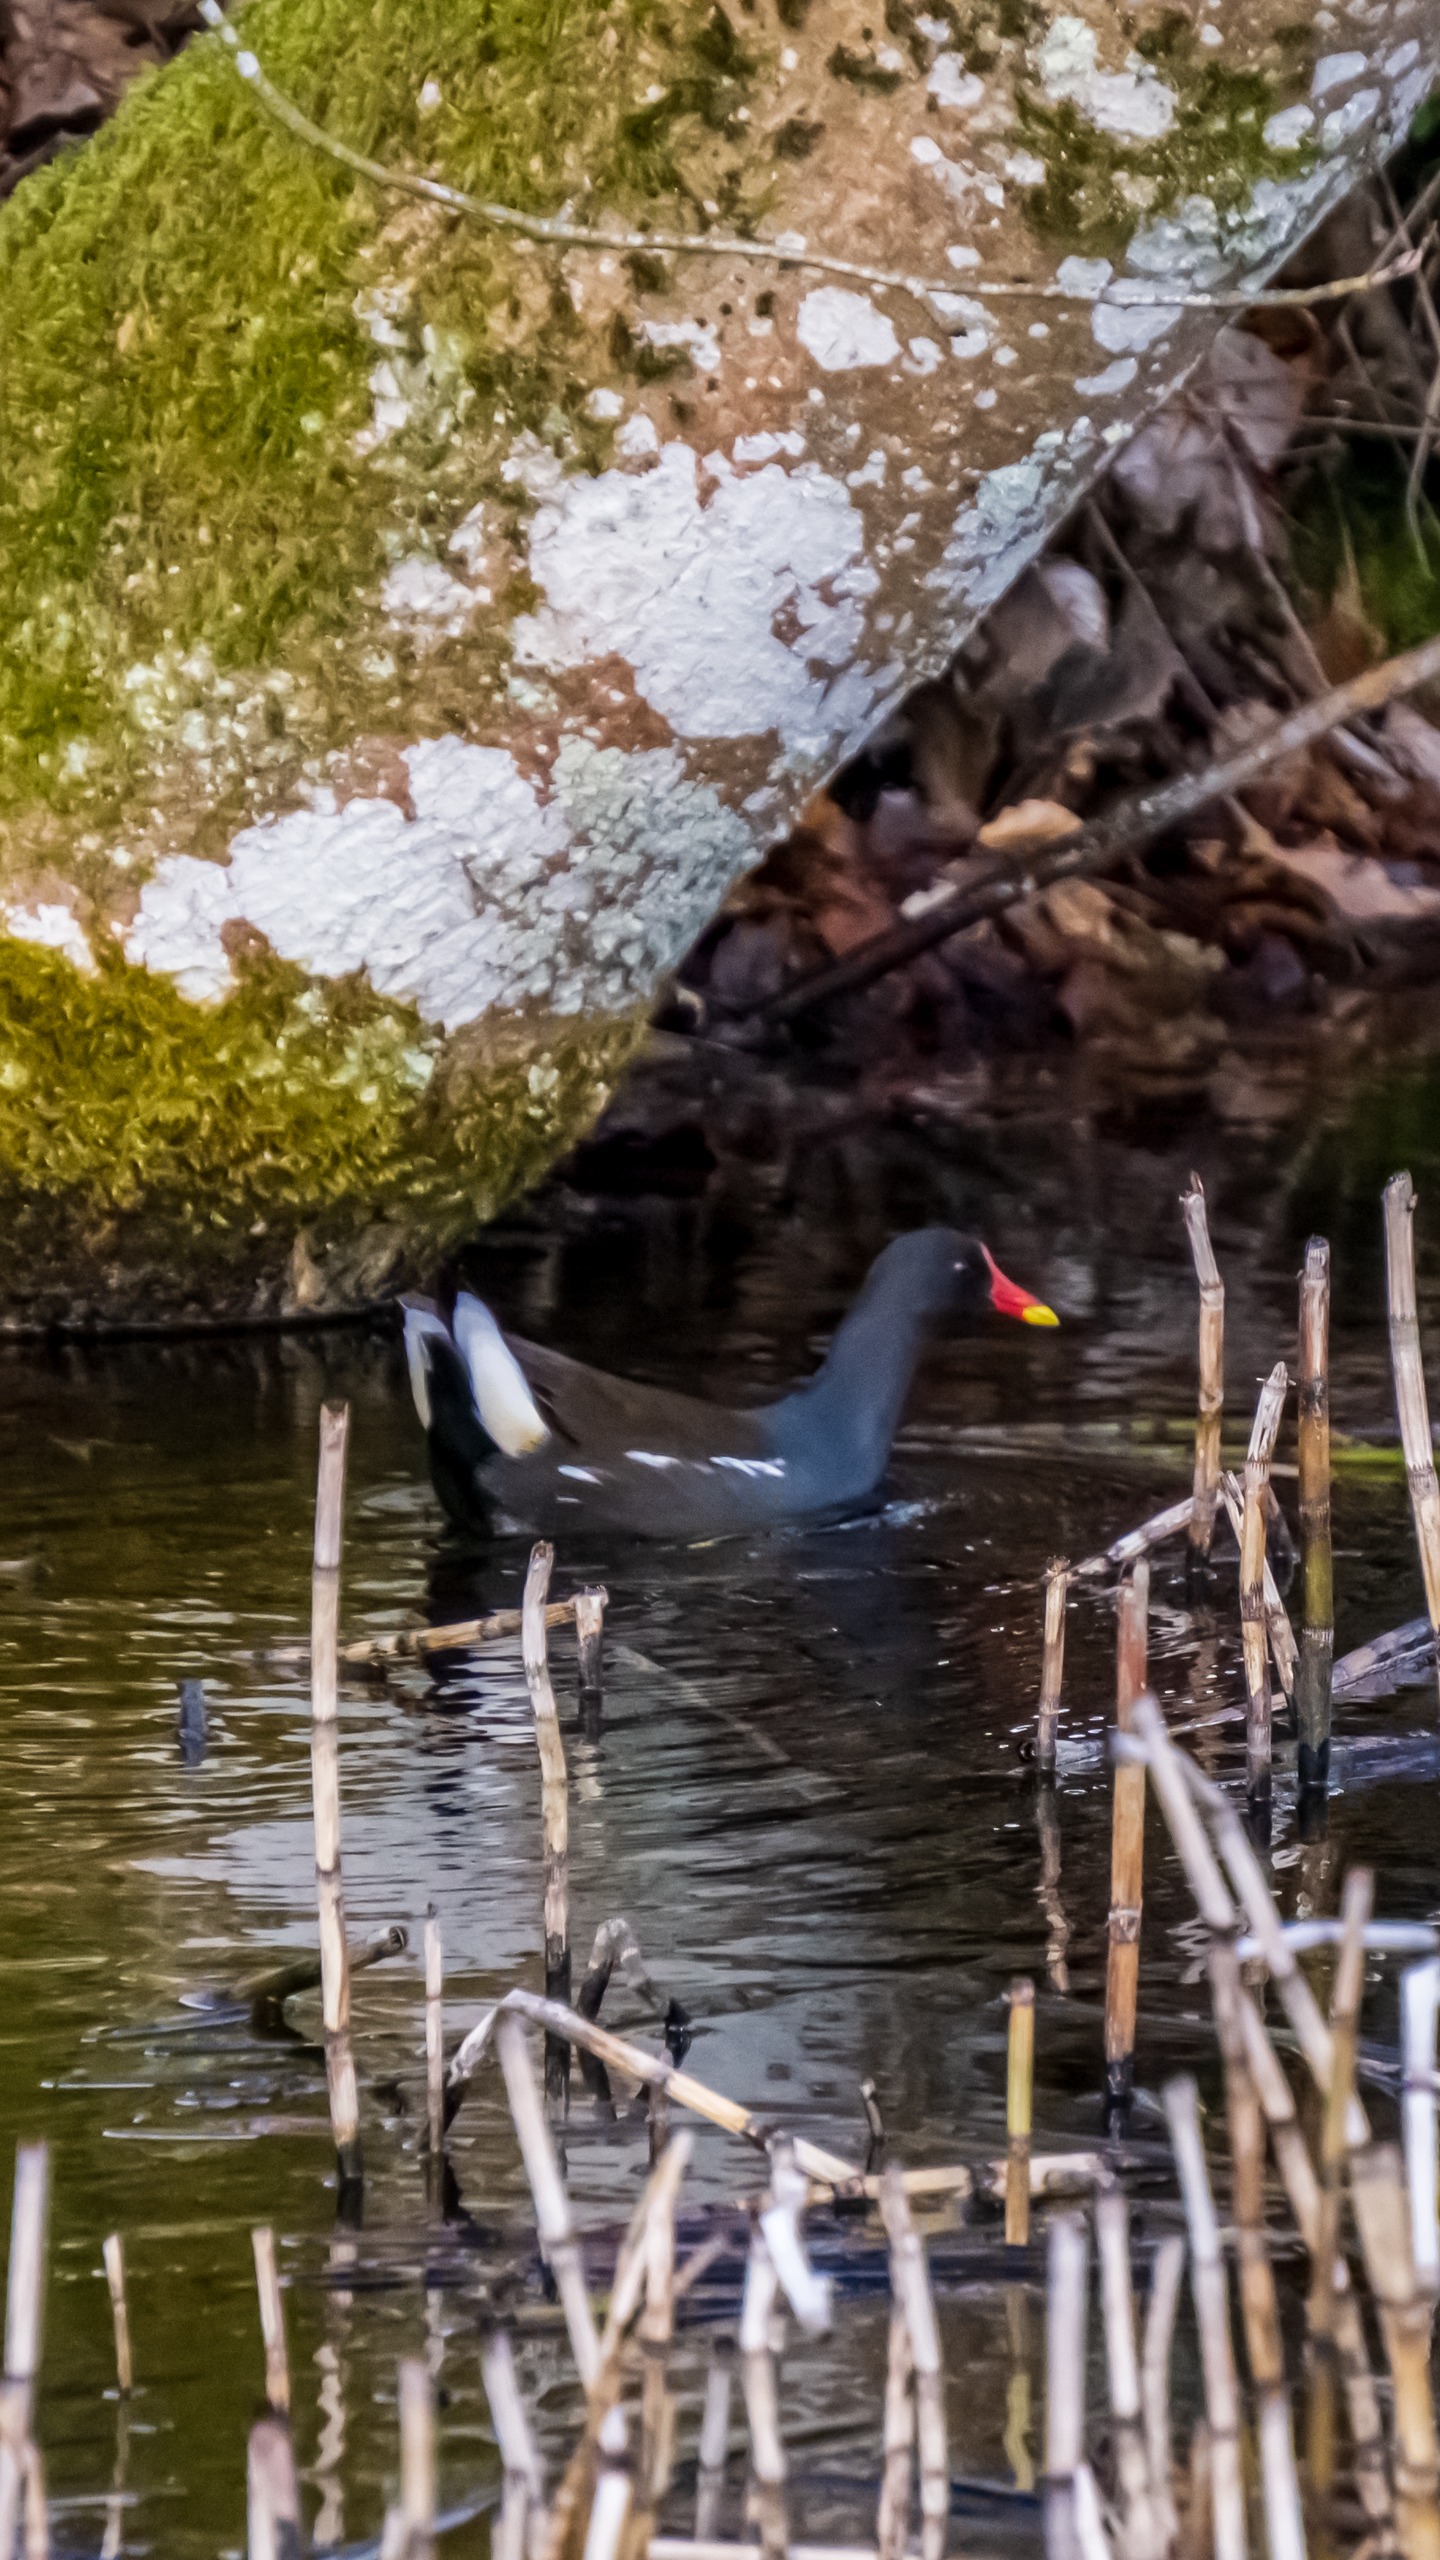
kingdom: Animalia
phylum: Chordata
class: Aves
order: Gruiformes
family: Rallidae
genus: Gallinula
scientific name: Gallinula chloropus
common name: Grønbenet rørhøne
